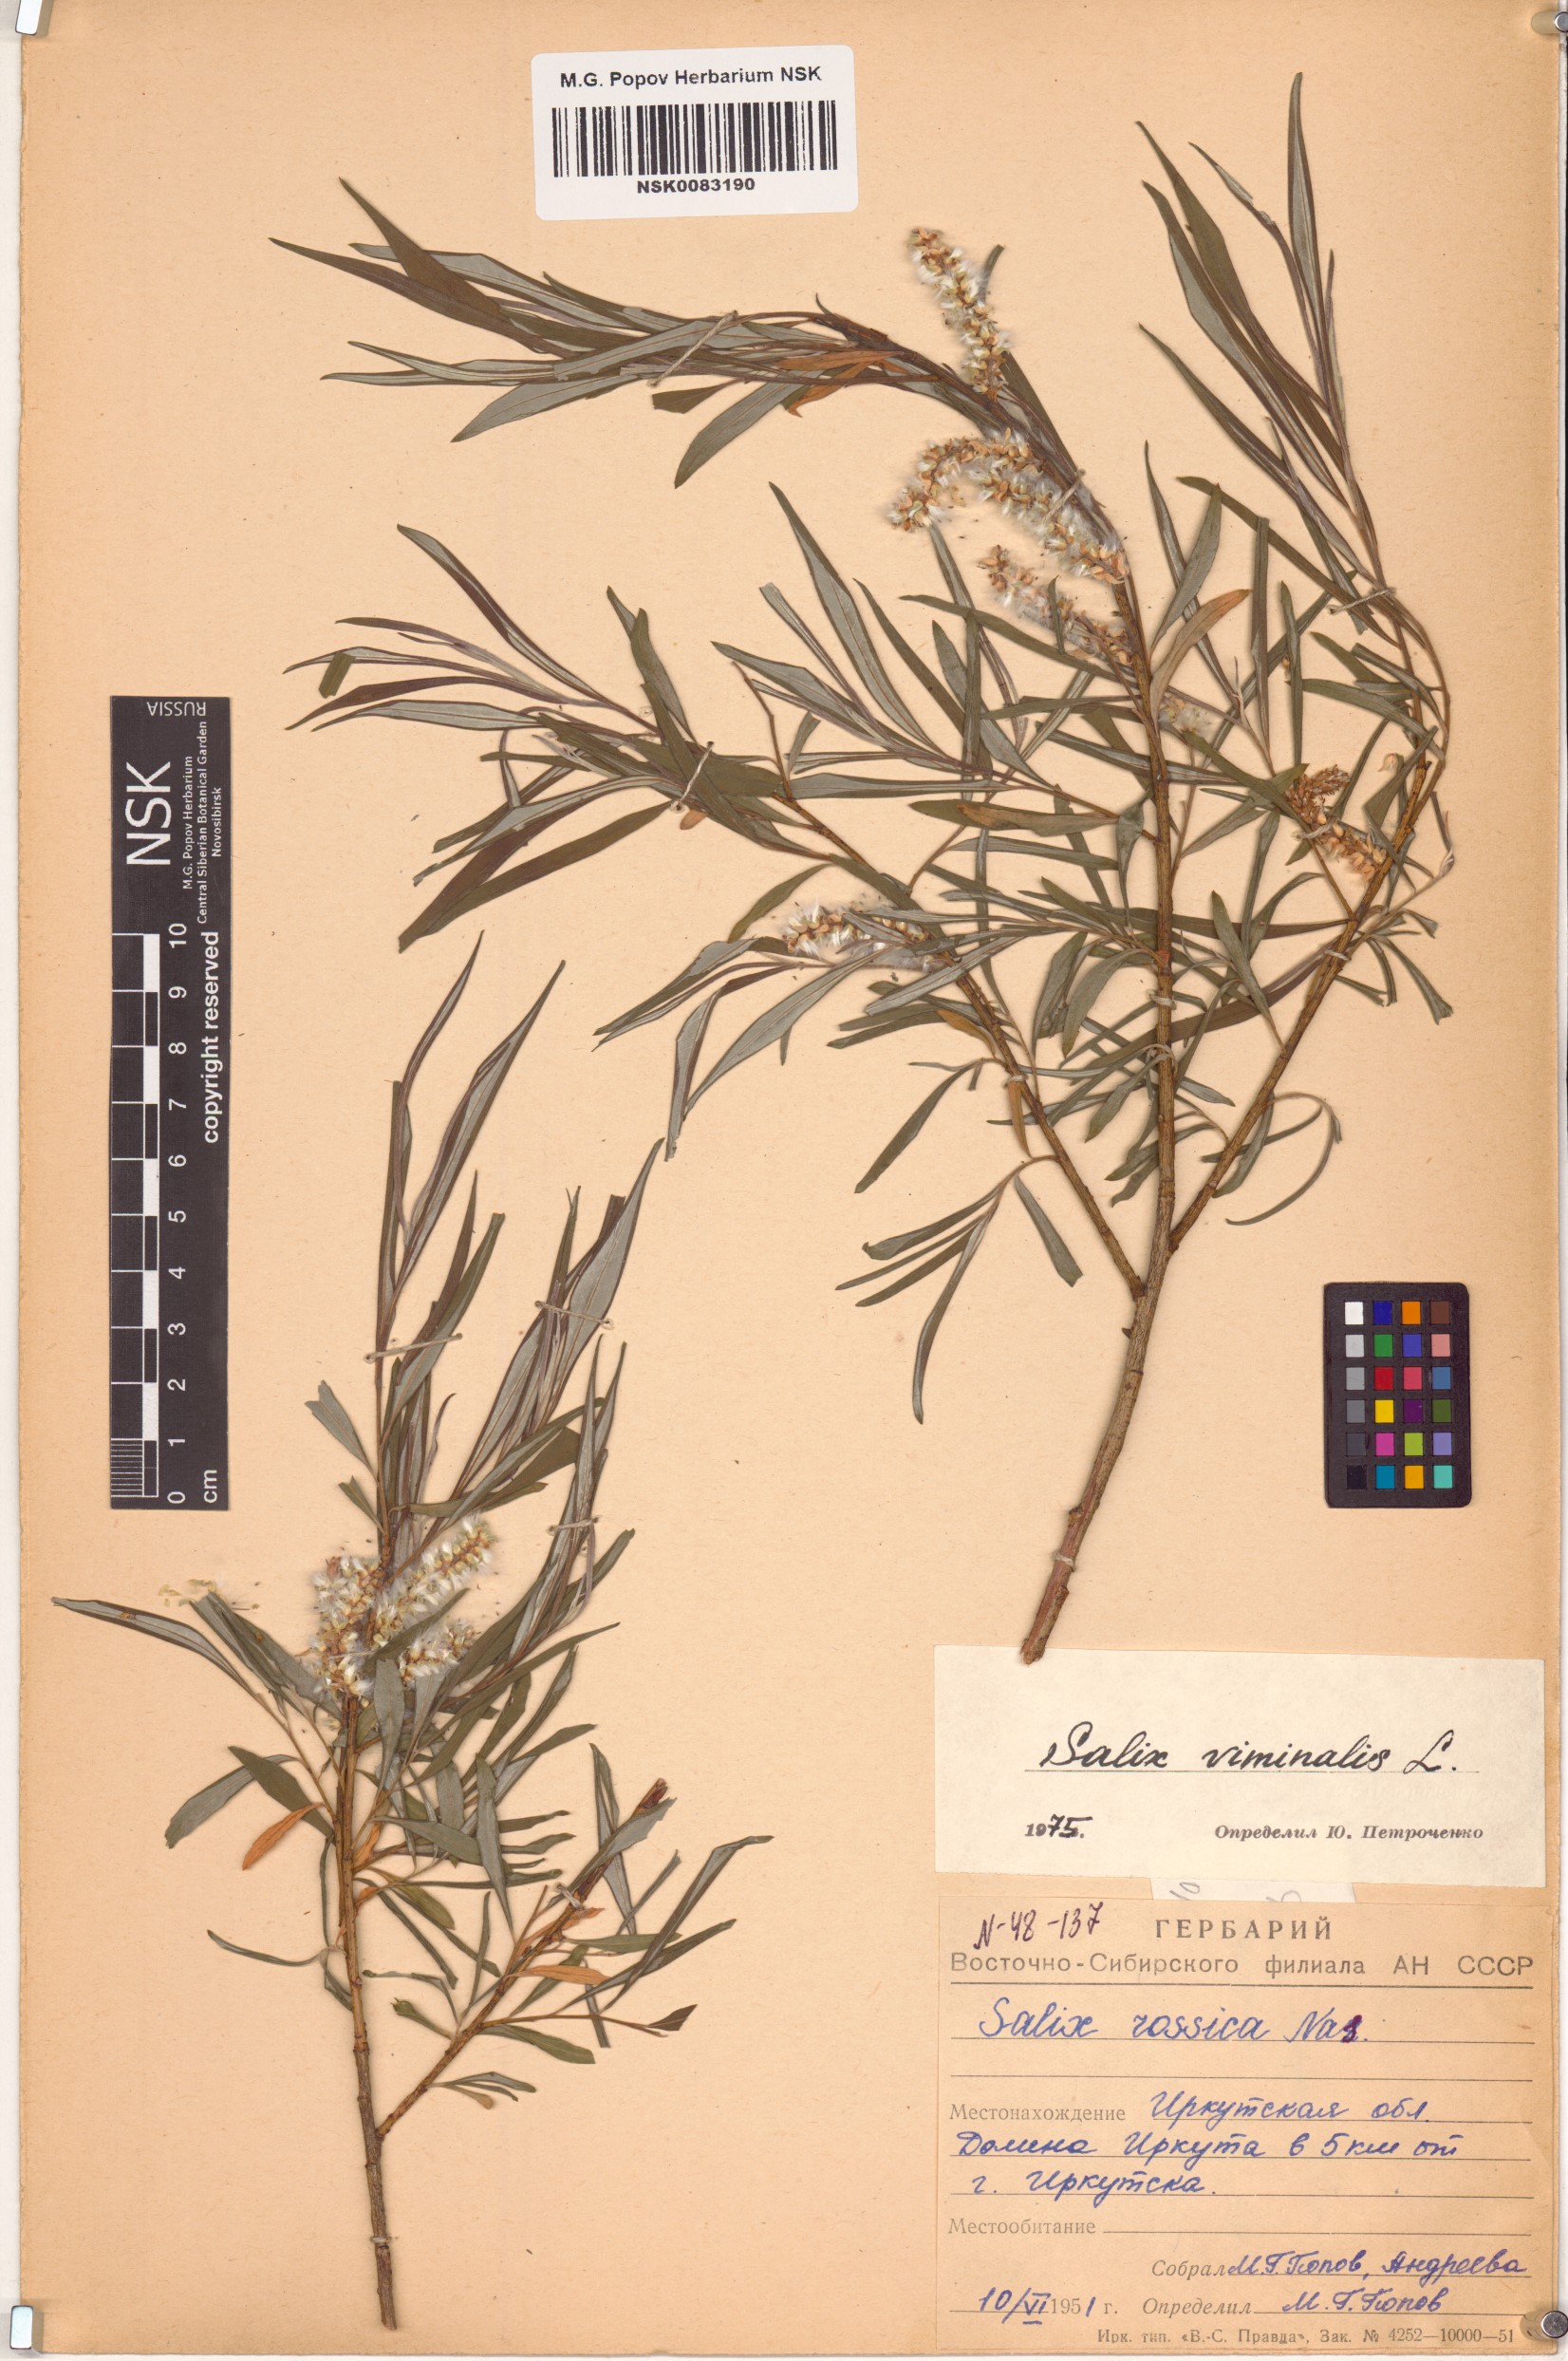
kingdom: Plantae
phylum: Tracheophyta
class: Magnoliopsida
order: Malpighiales
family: Salicaceae
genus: Salix
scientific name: Salix viminalis
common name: Osier
